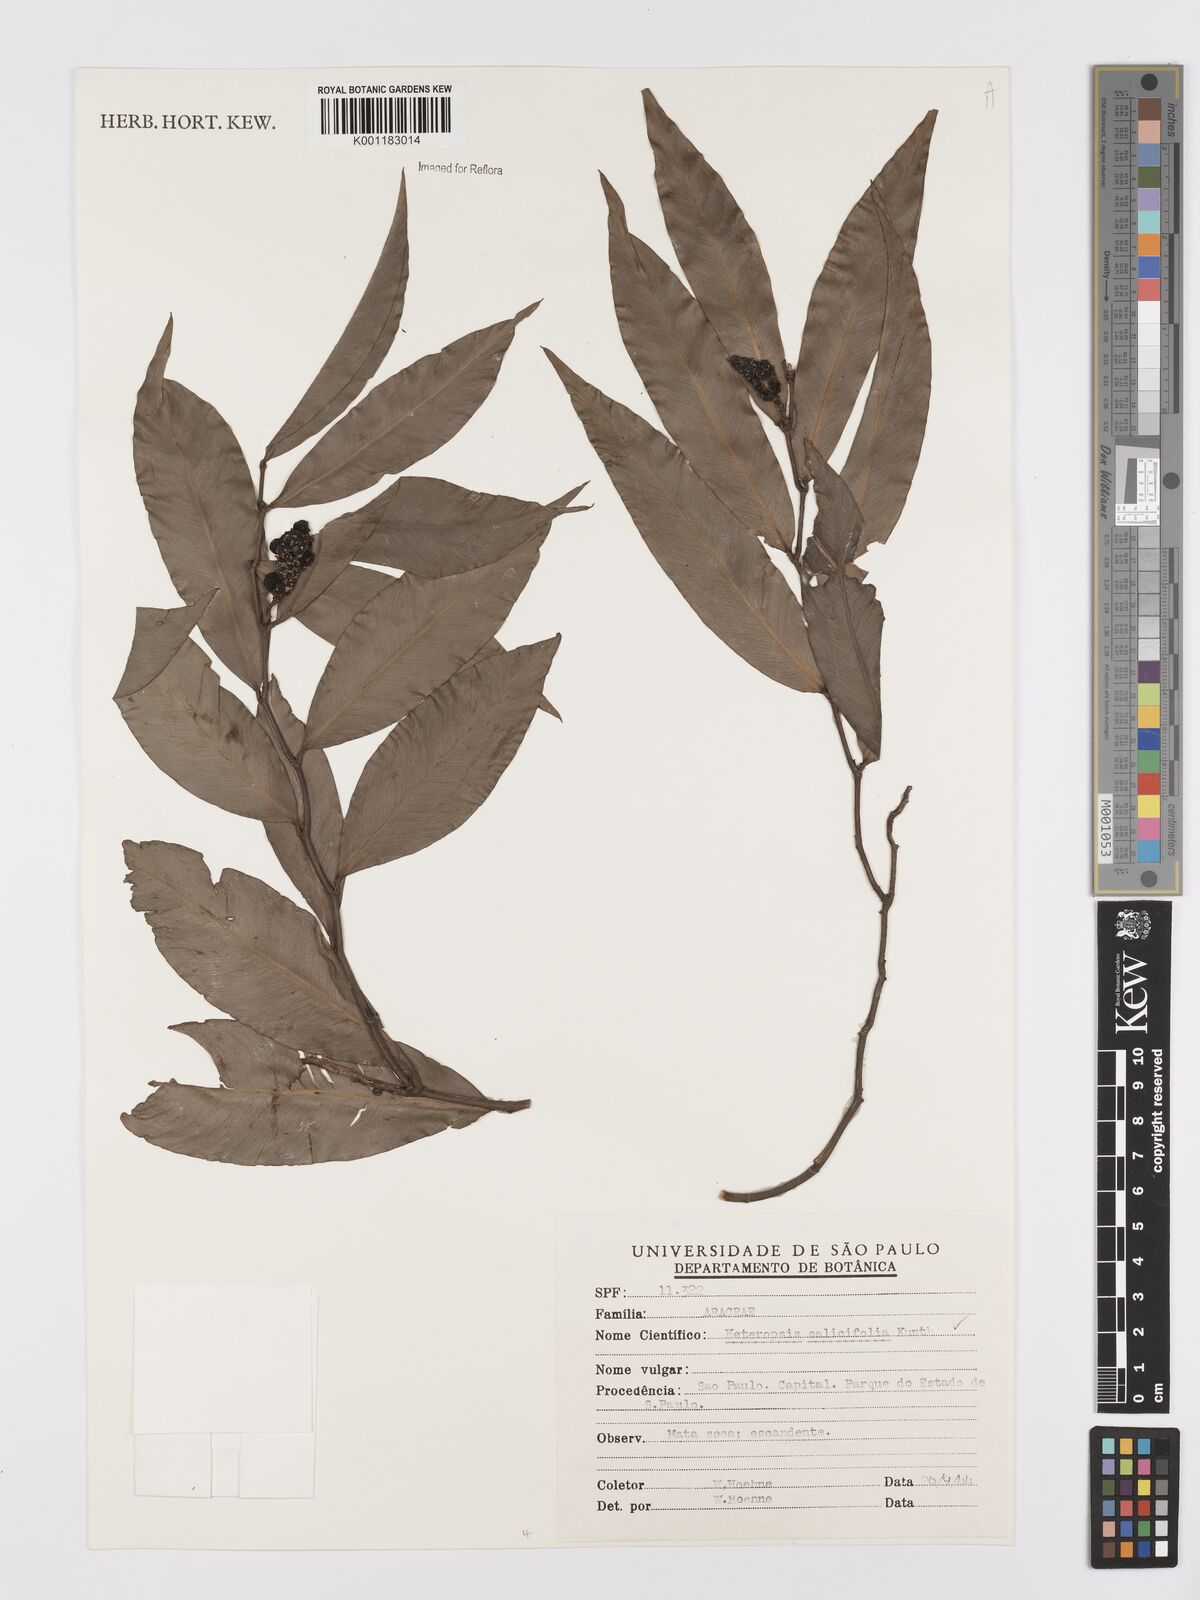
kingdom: Plantae
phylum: Tracheophyta
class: Liliopsida
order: Alismatales
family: Araceae
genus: Heteropsis
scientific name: Heteropsis salicifolia
